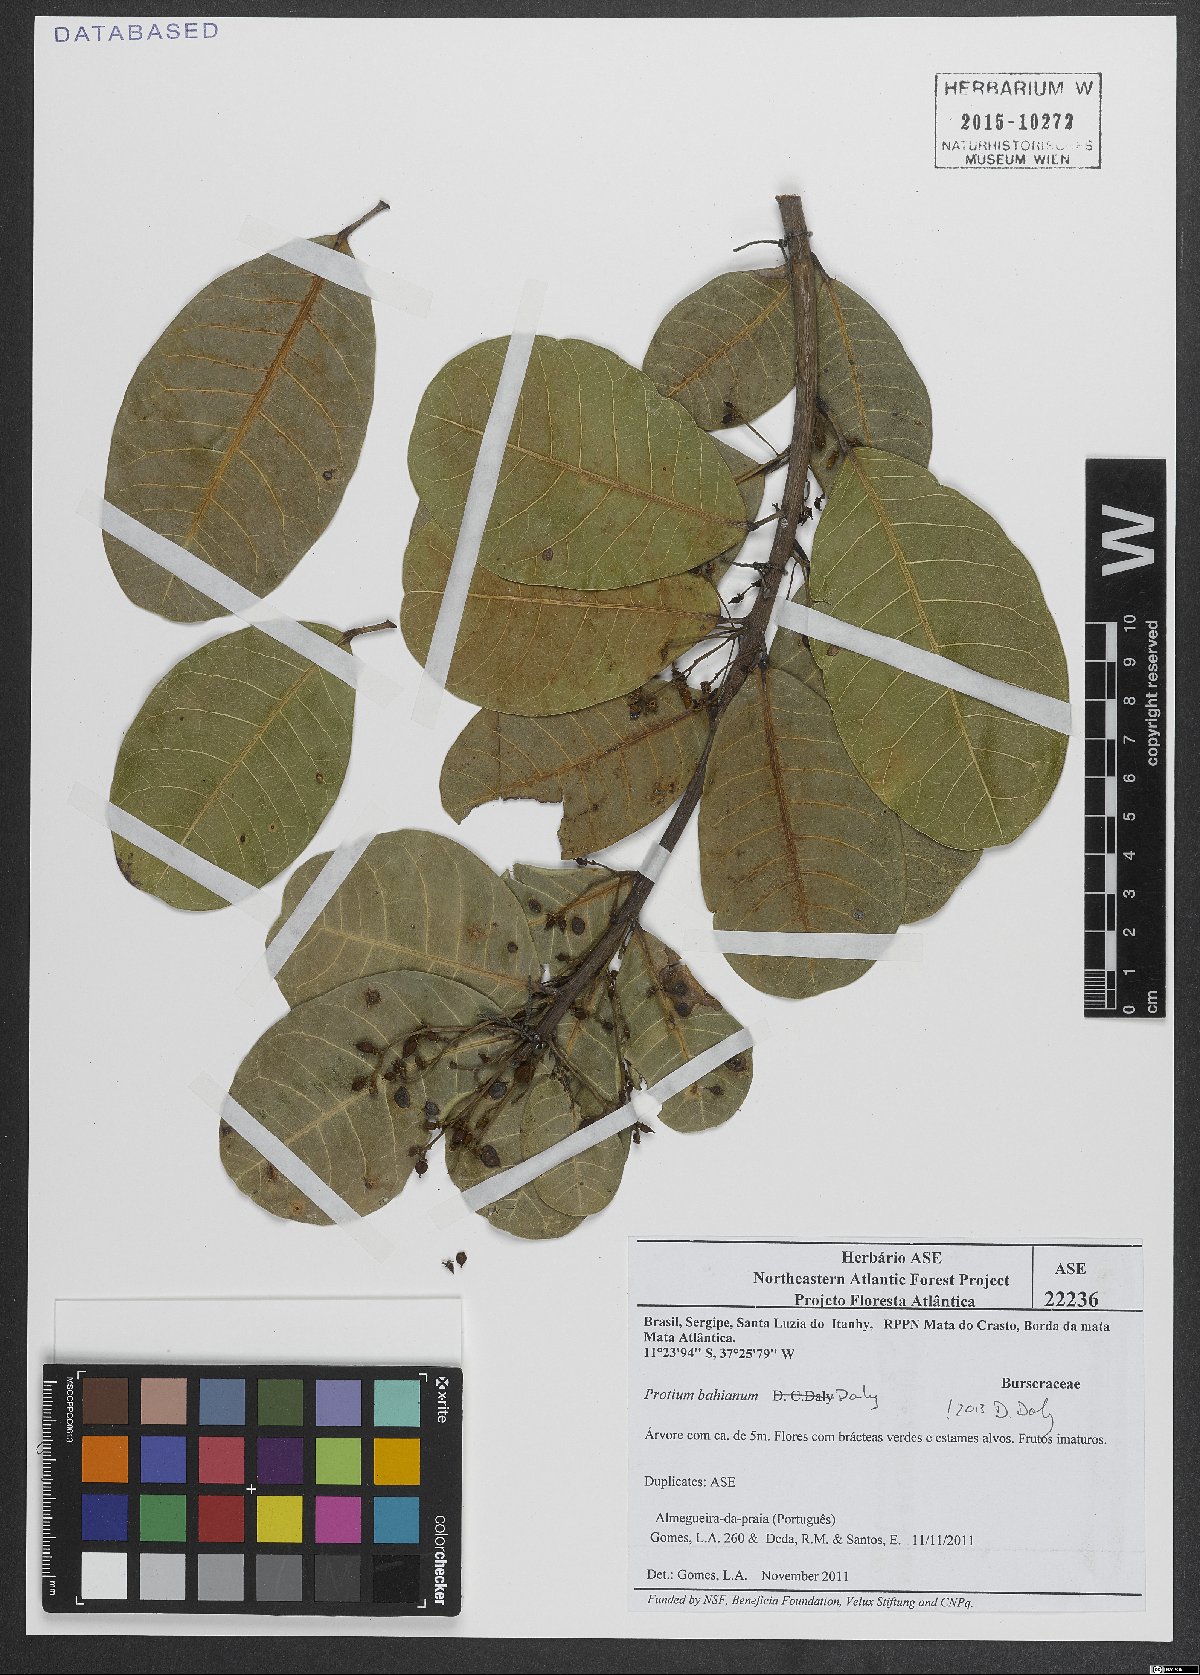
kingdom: Plantae
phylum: Tracheophyta
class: Magnoliopsida
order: Sapindales
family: Burseraceae
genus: Protium
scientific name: Protium bahianum
